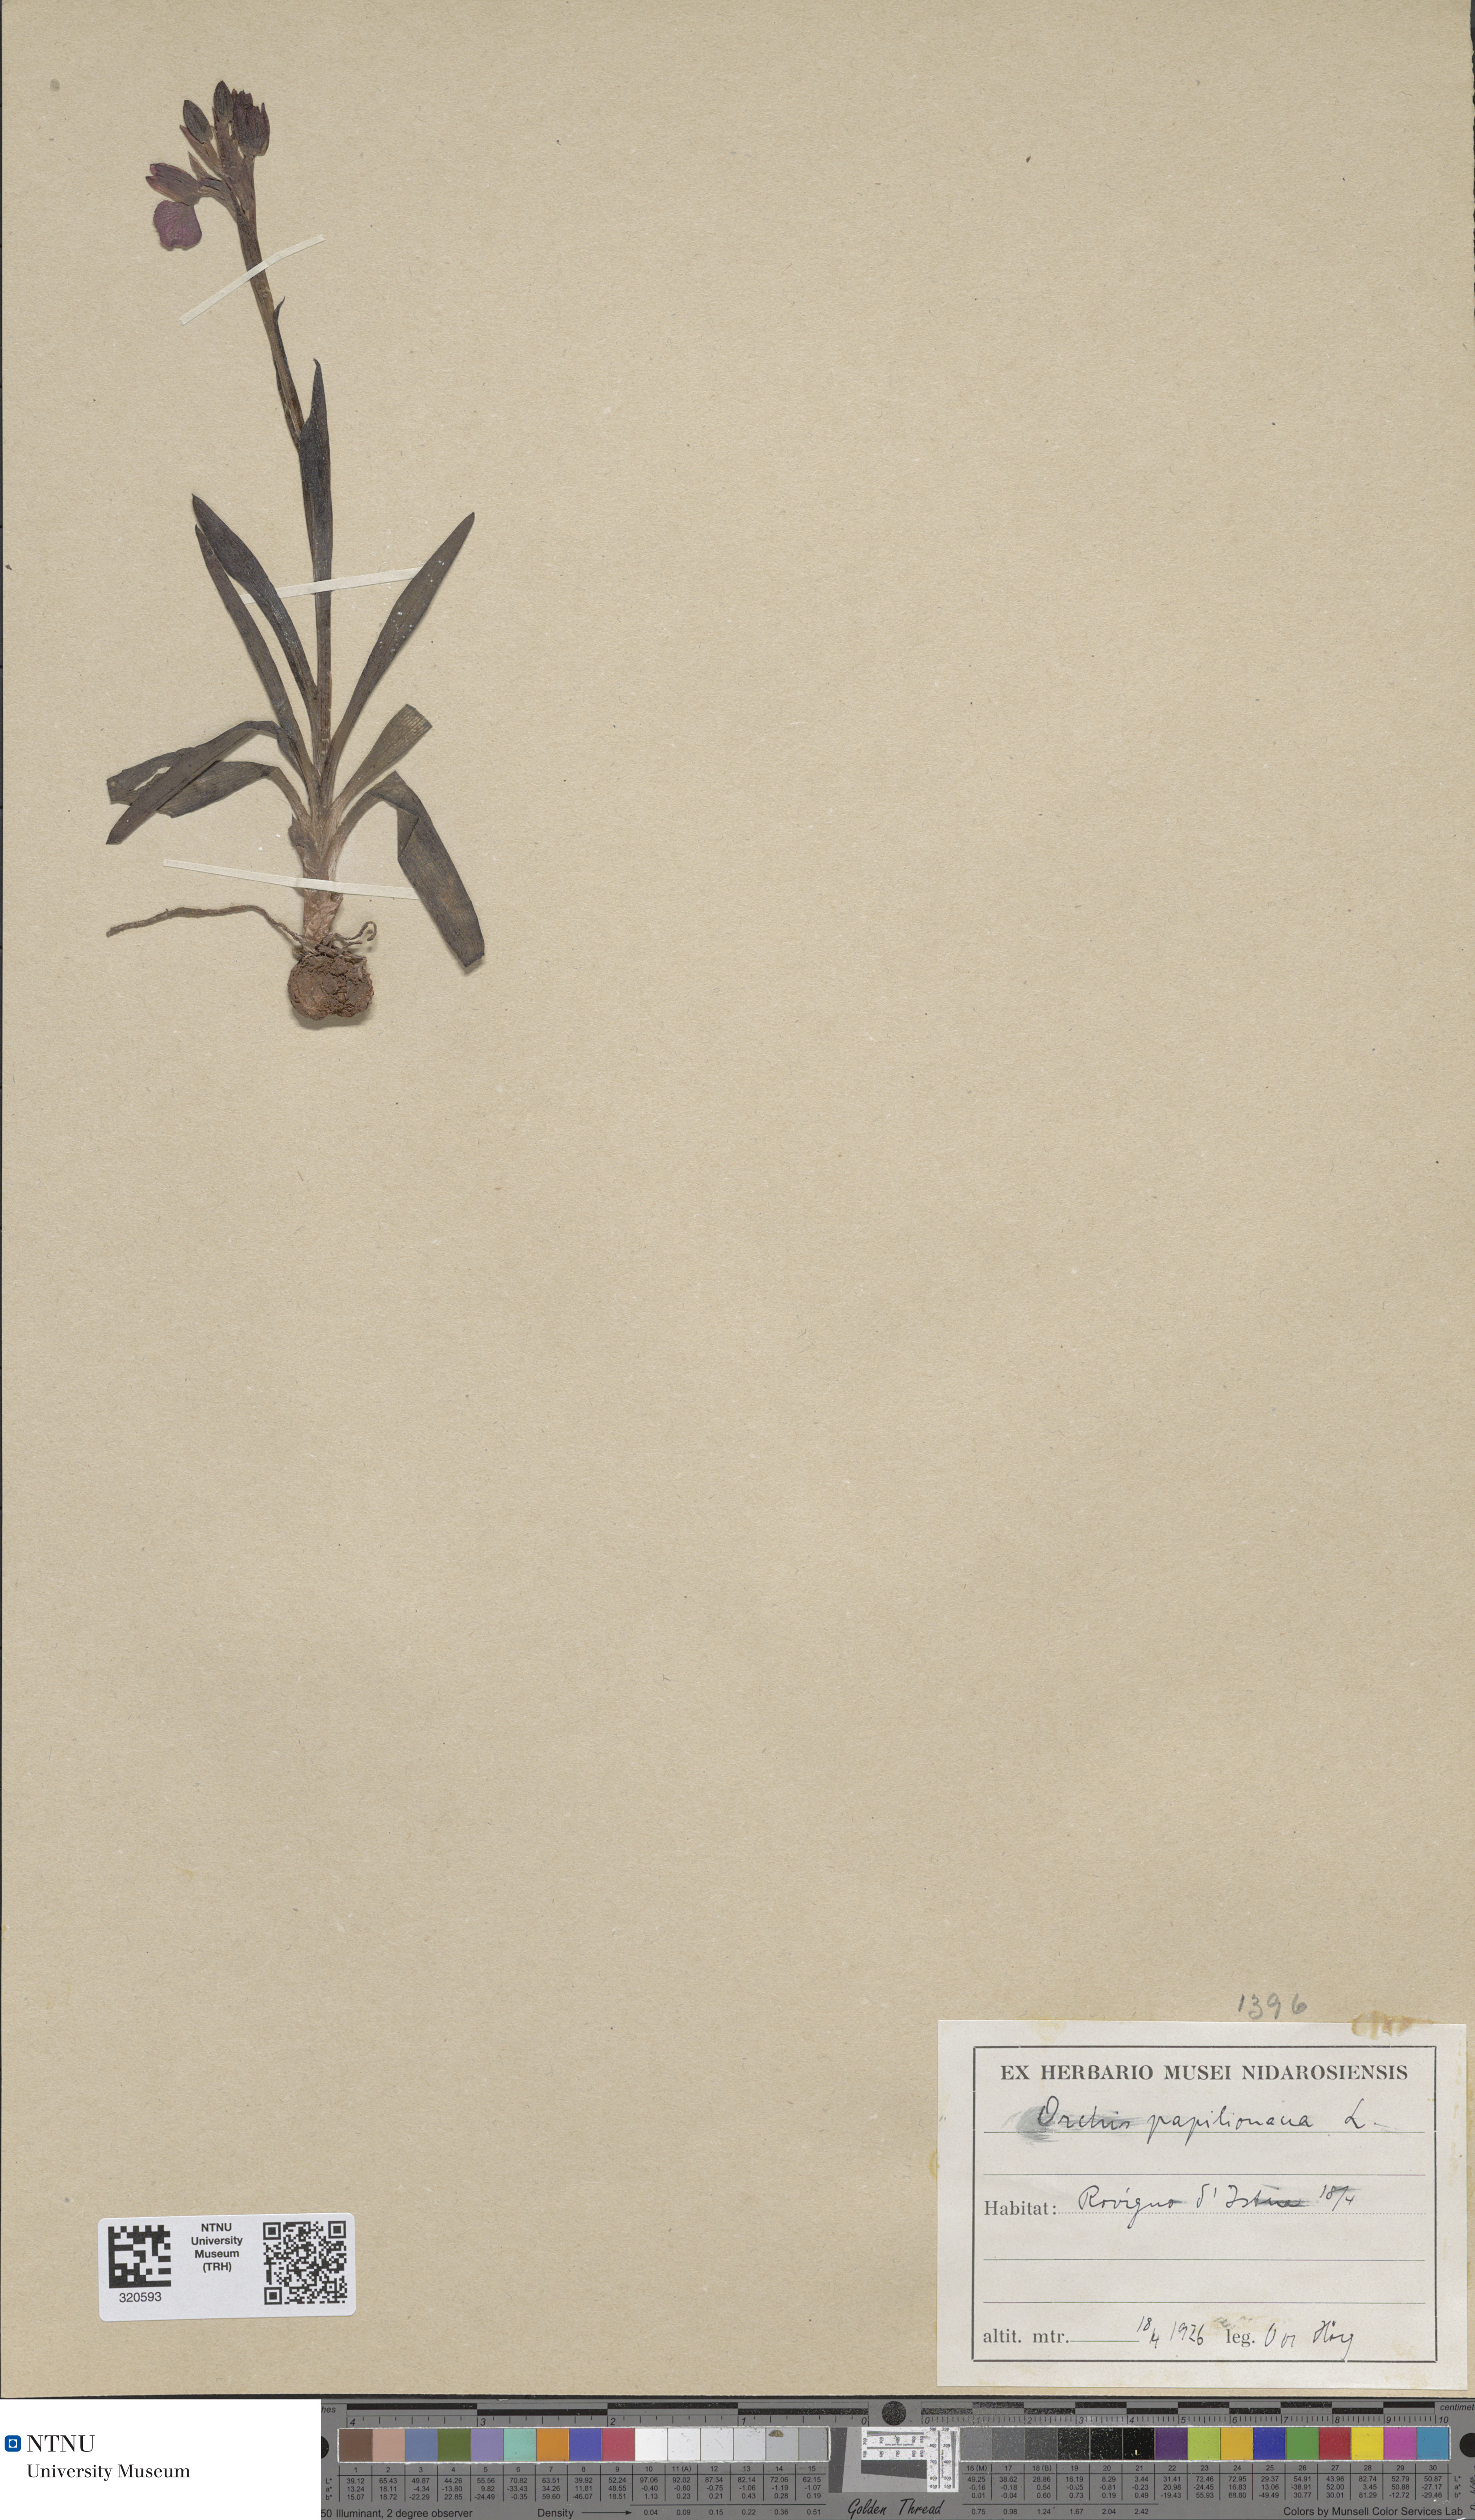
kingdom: Plantae
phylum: Tracheophyta
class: Liliopsida
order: Asparagales
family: Orchidaceae
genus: Anacamptis
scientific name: Anacamptis papilionacea
